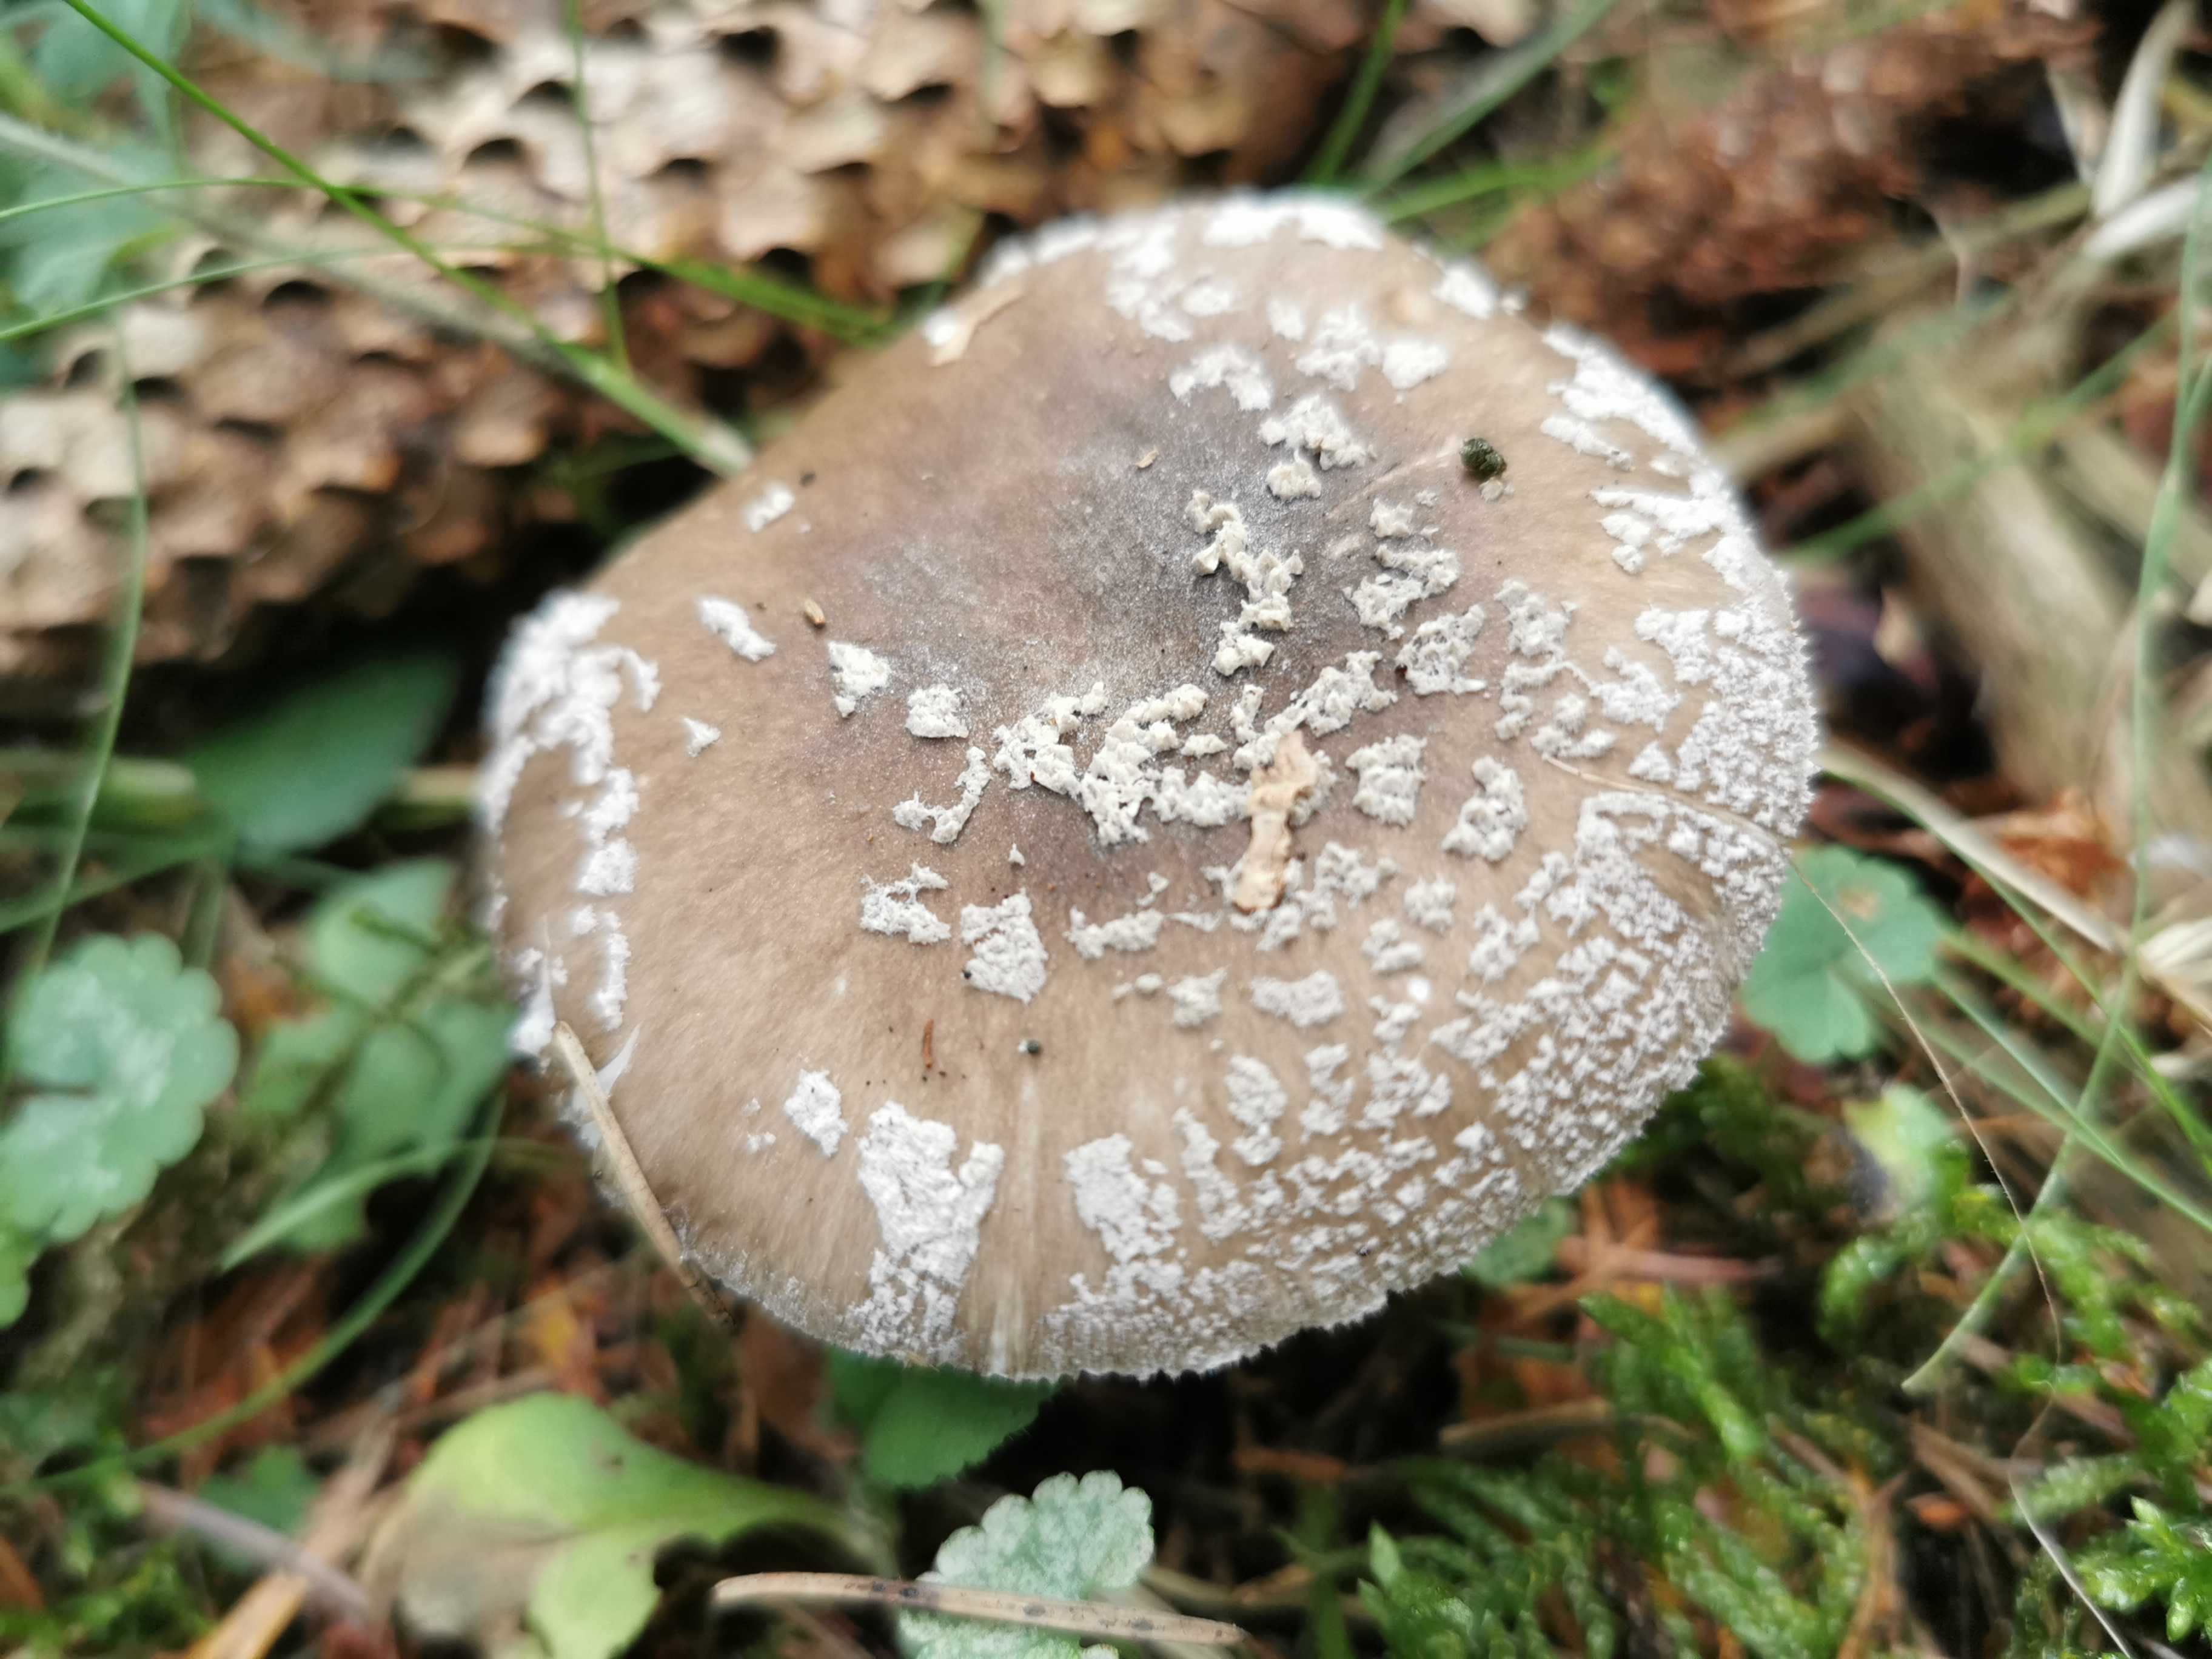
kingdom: Fungi
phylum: Basidiomycota
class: Agaricomycetes
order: Agaricales
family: Amanitaceae
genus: Amanita
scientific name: Amanita
